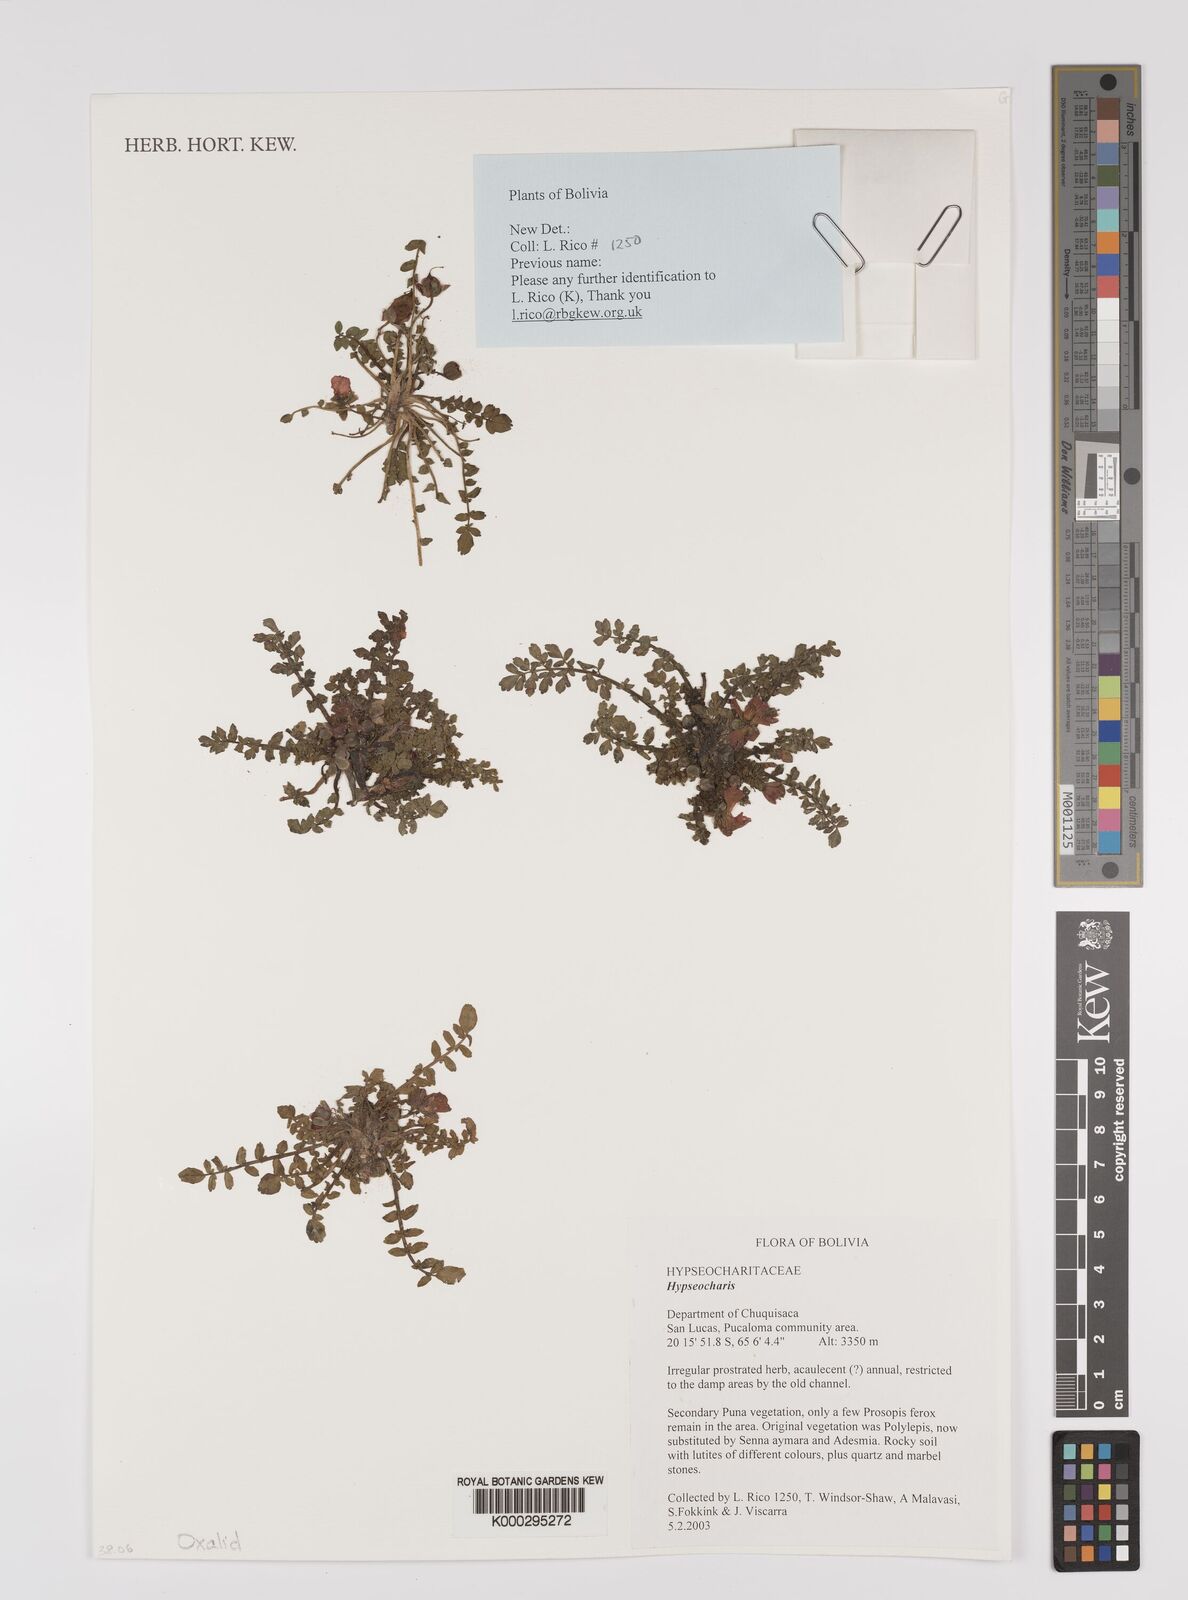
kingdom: Plantae
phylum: Tracheophyta
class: Magnoliopsida
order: Geraniales
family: Hypseocharitaceae
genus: Hypseocharis
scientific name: Hypseocharis
